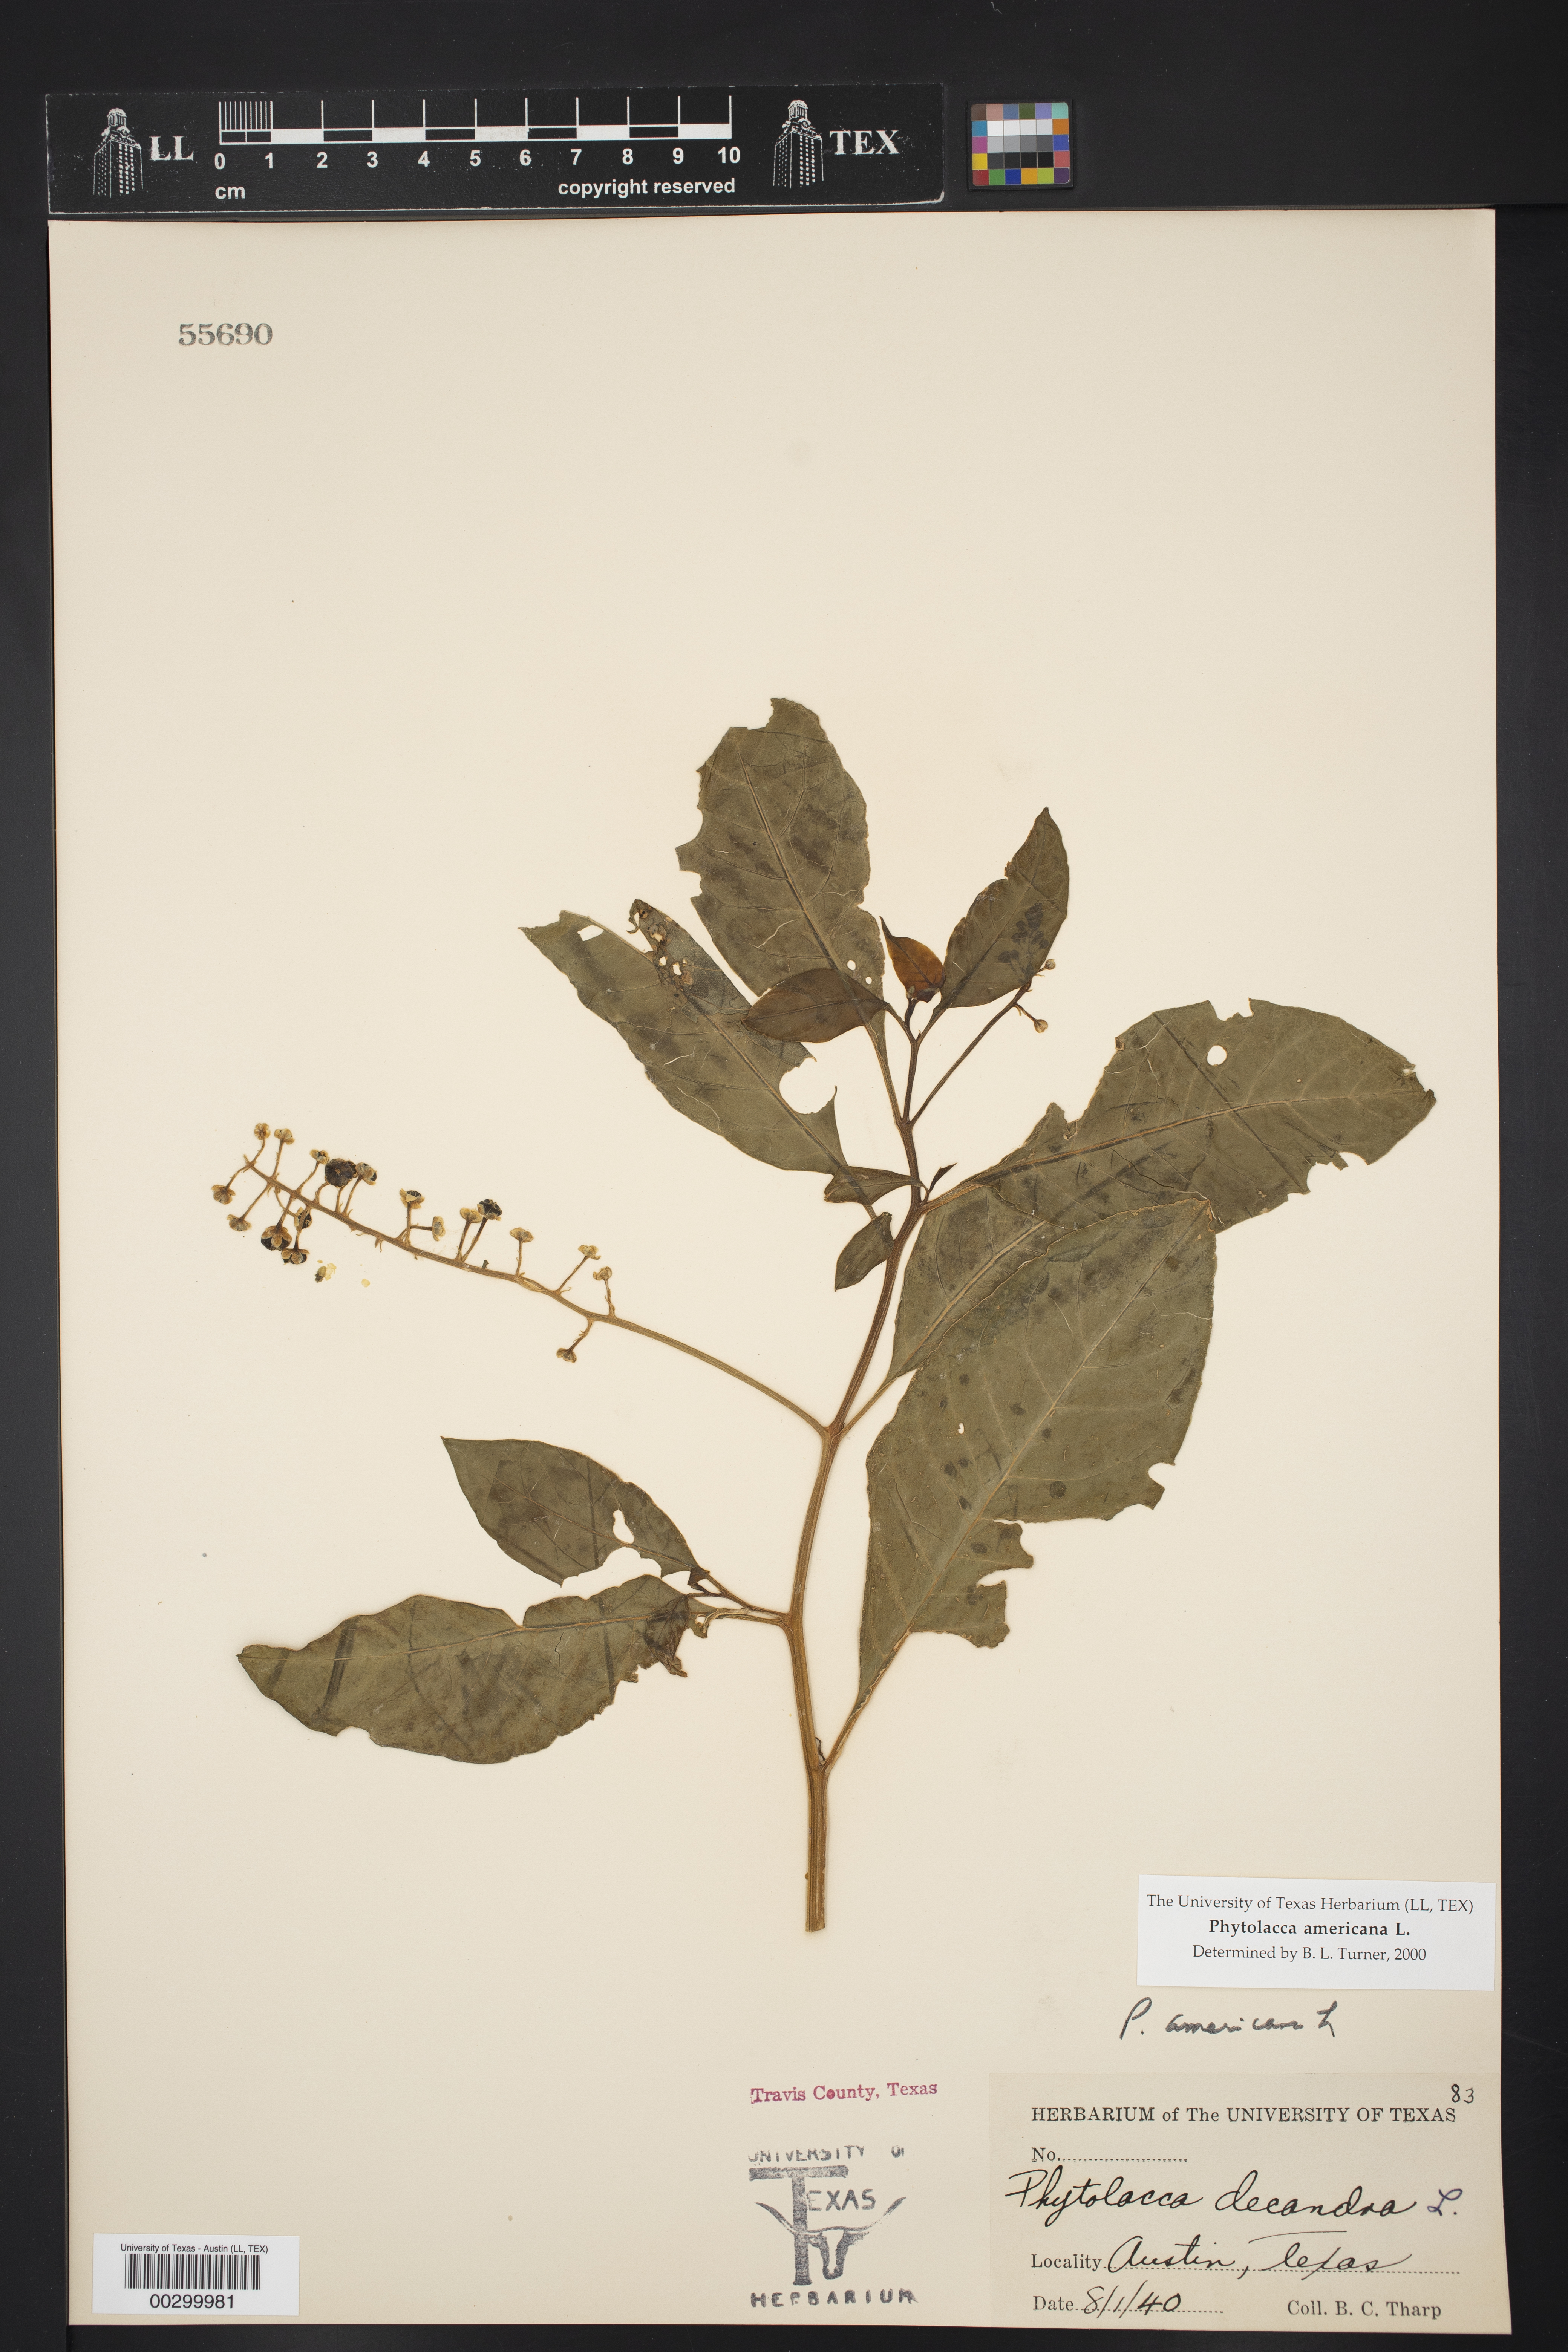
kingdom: Plantae
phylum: Tracheophyta
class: Magnoliopsida
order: Caryophyllales
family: Phytolaccaceae
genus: Phytolacca
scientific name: Phytolacca americana
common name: American pokeweed
